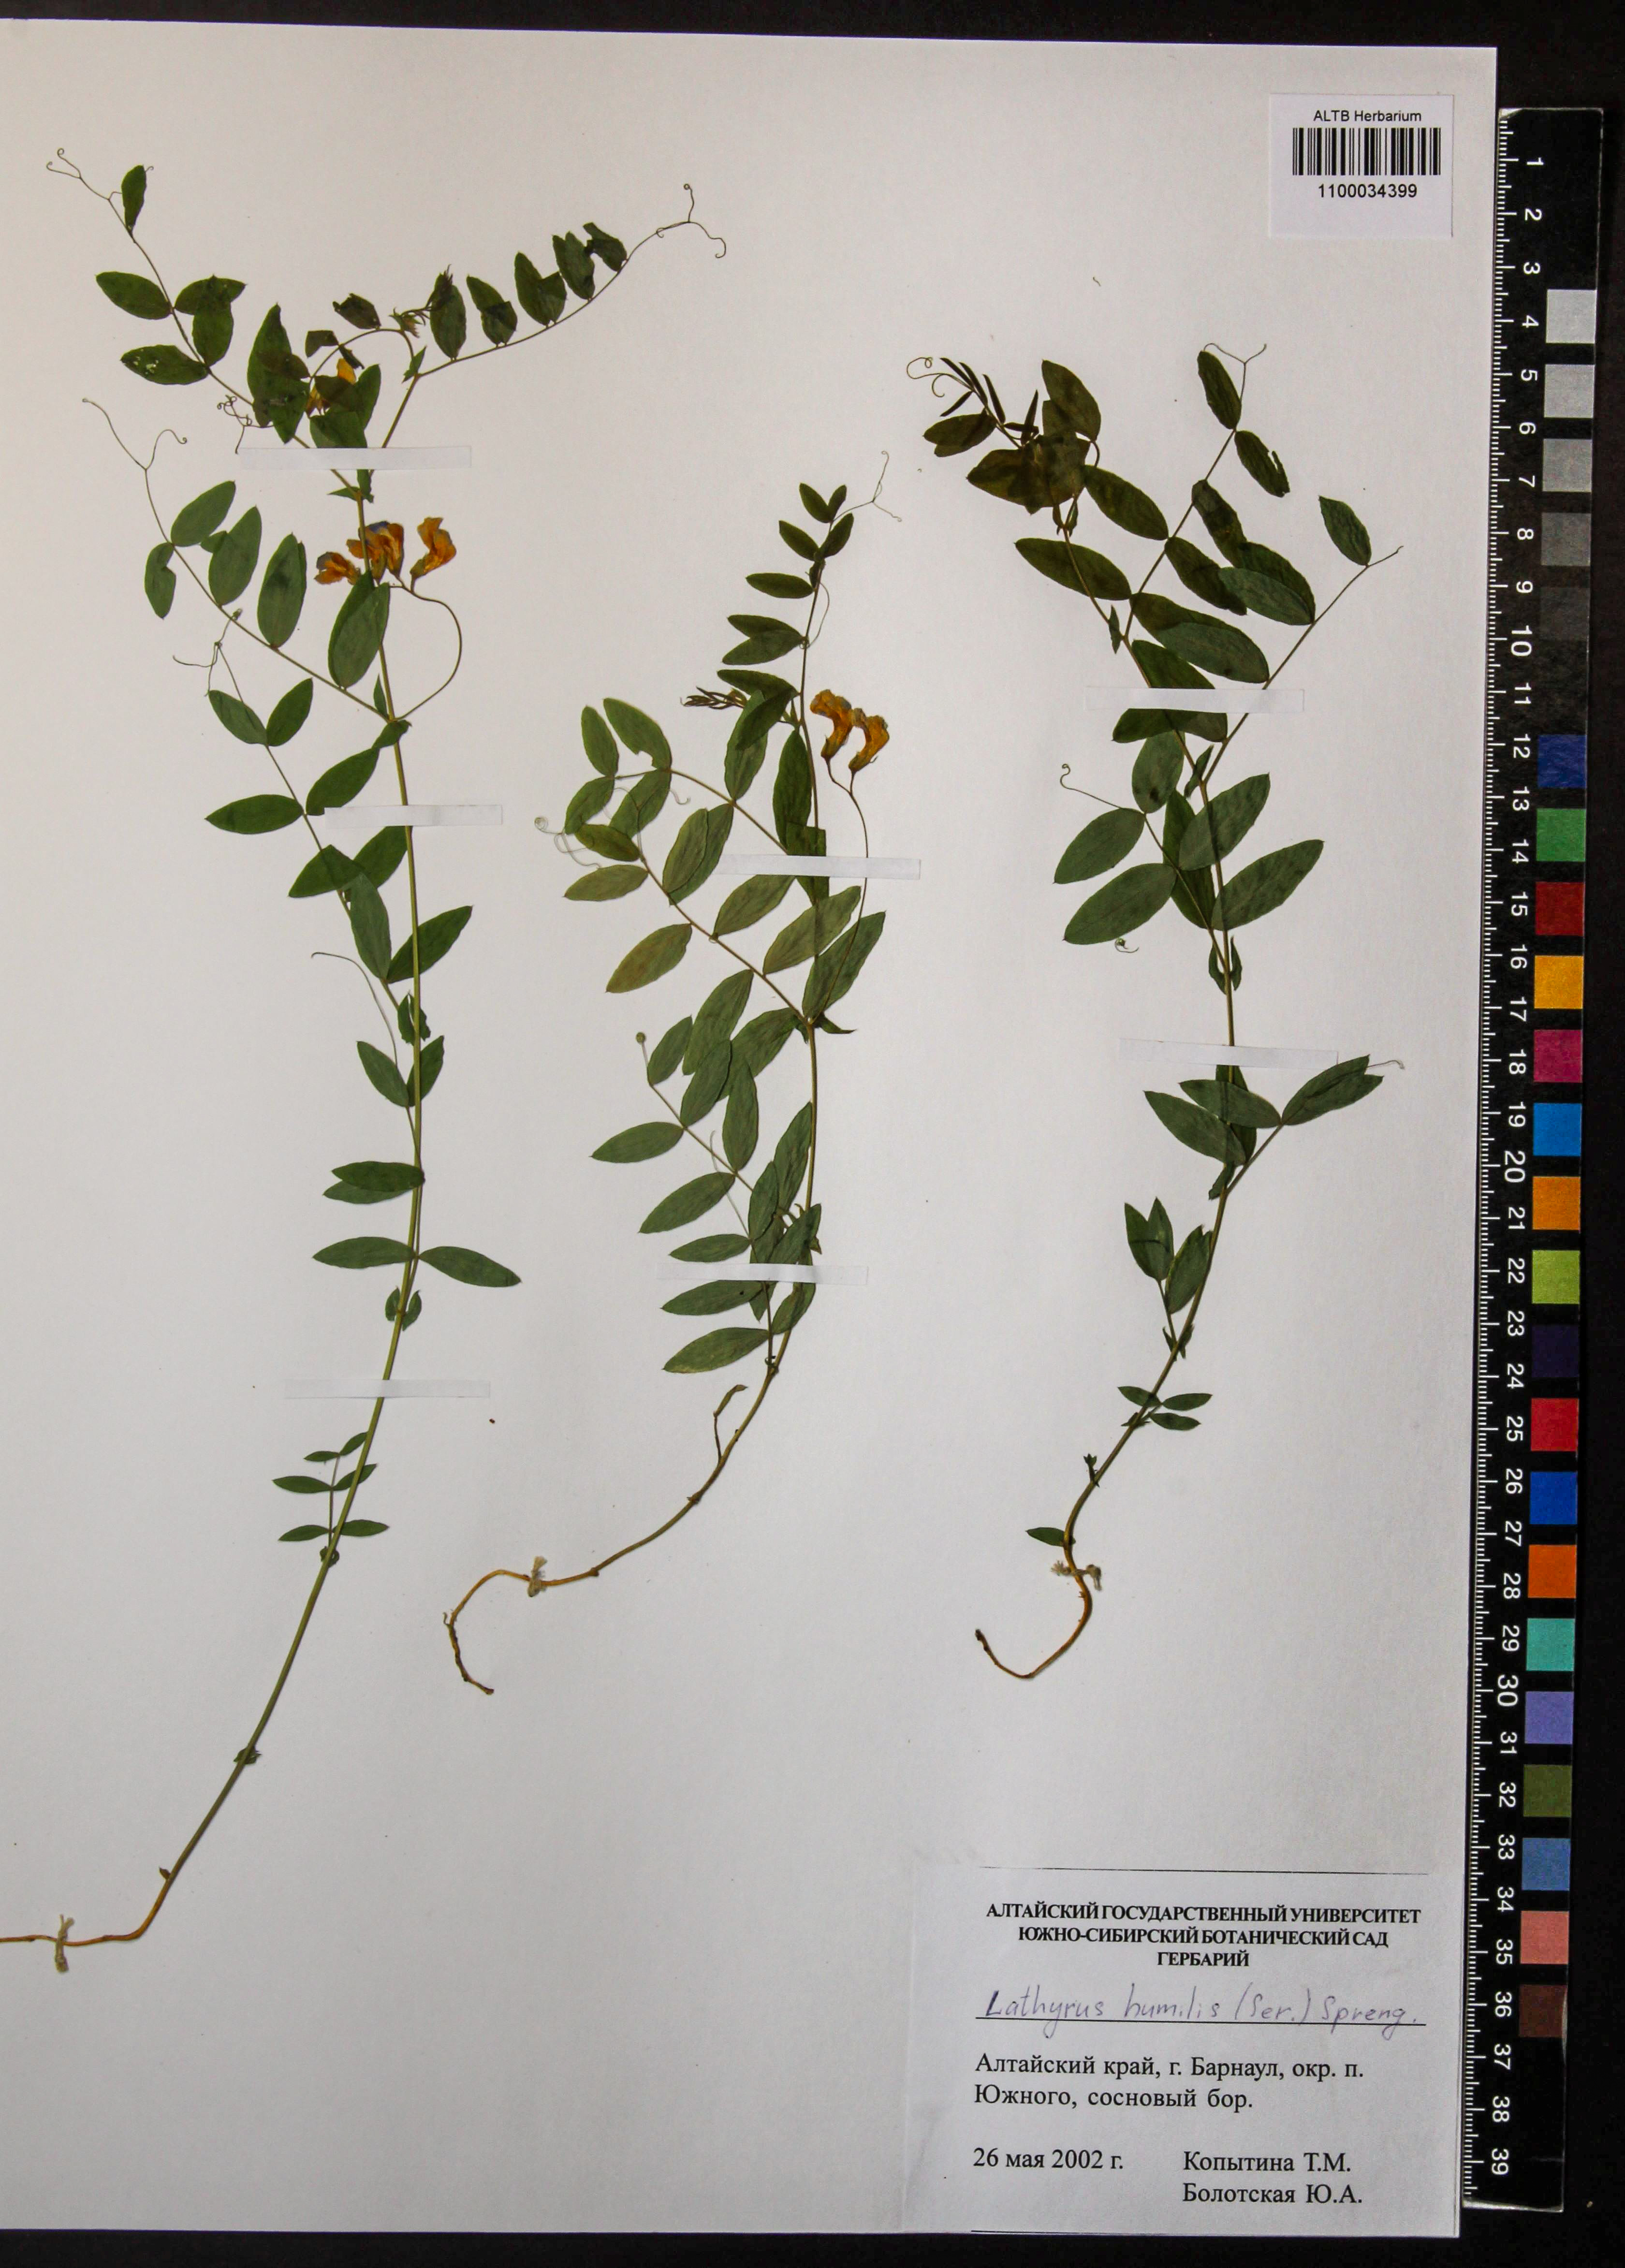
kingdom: Plantae
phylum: Tracheophyta
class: Magnoliopsida
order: Fabales
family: Fabaceae
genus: Lathyrus
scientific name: Lathyrus humilis
